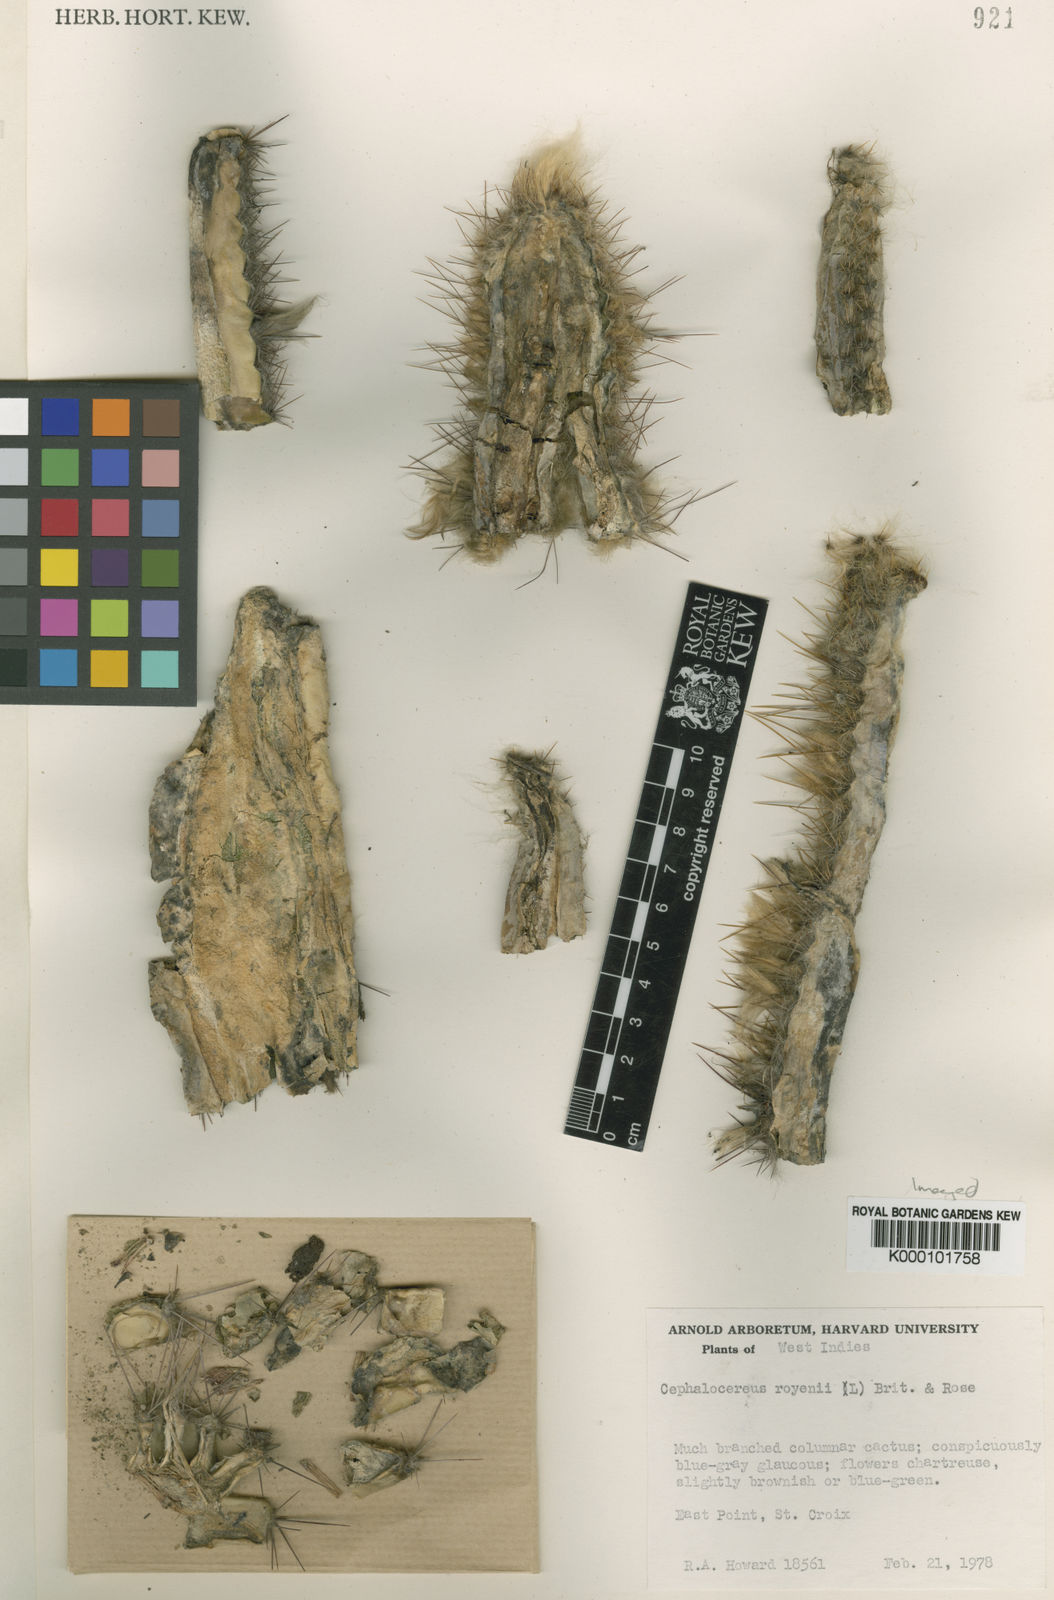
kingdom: Plantae
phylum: Tracheophyta
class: Magnoliopsida
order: Caryophyllales
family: Cactaceae
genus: Pilosocereus
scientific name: Pilosocereus polygonus
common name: Key tree cactus
